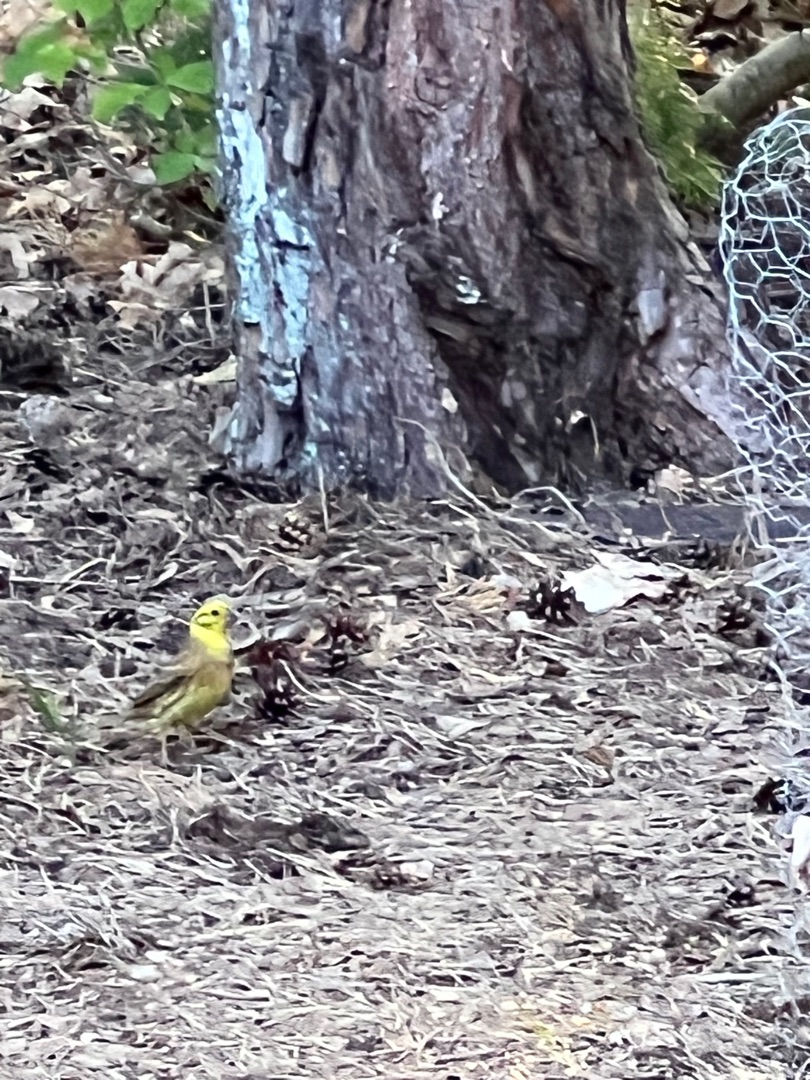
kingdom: Animalia
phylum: Chordata
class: Aves
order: Passeriformes
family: Emberizidae
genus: Emberiza
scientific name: Emberiza citrinella
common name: Gulspurv
